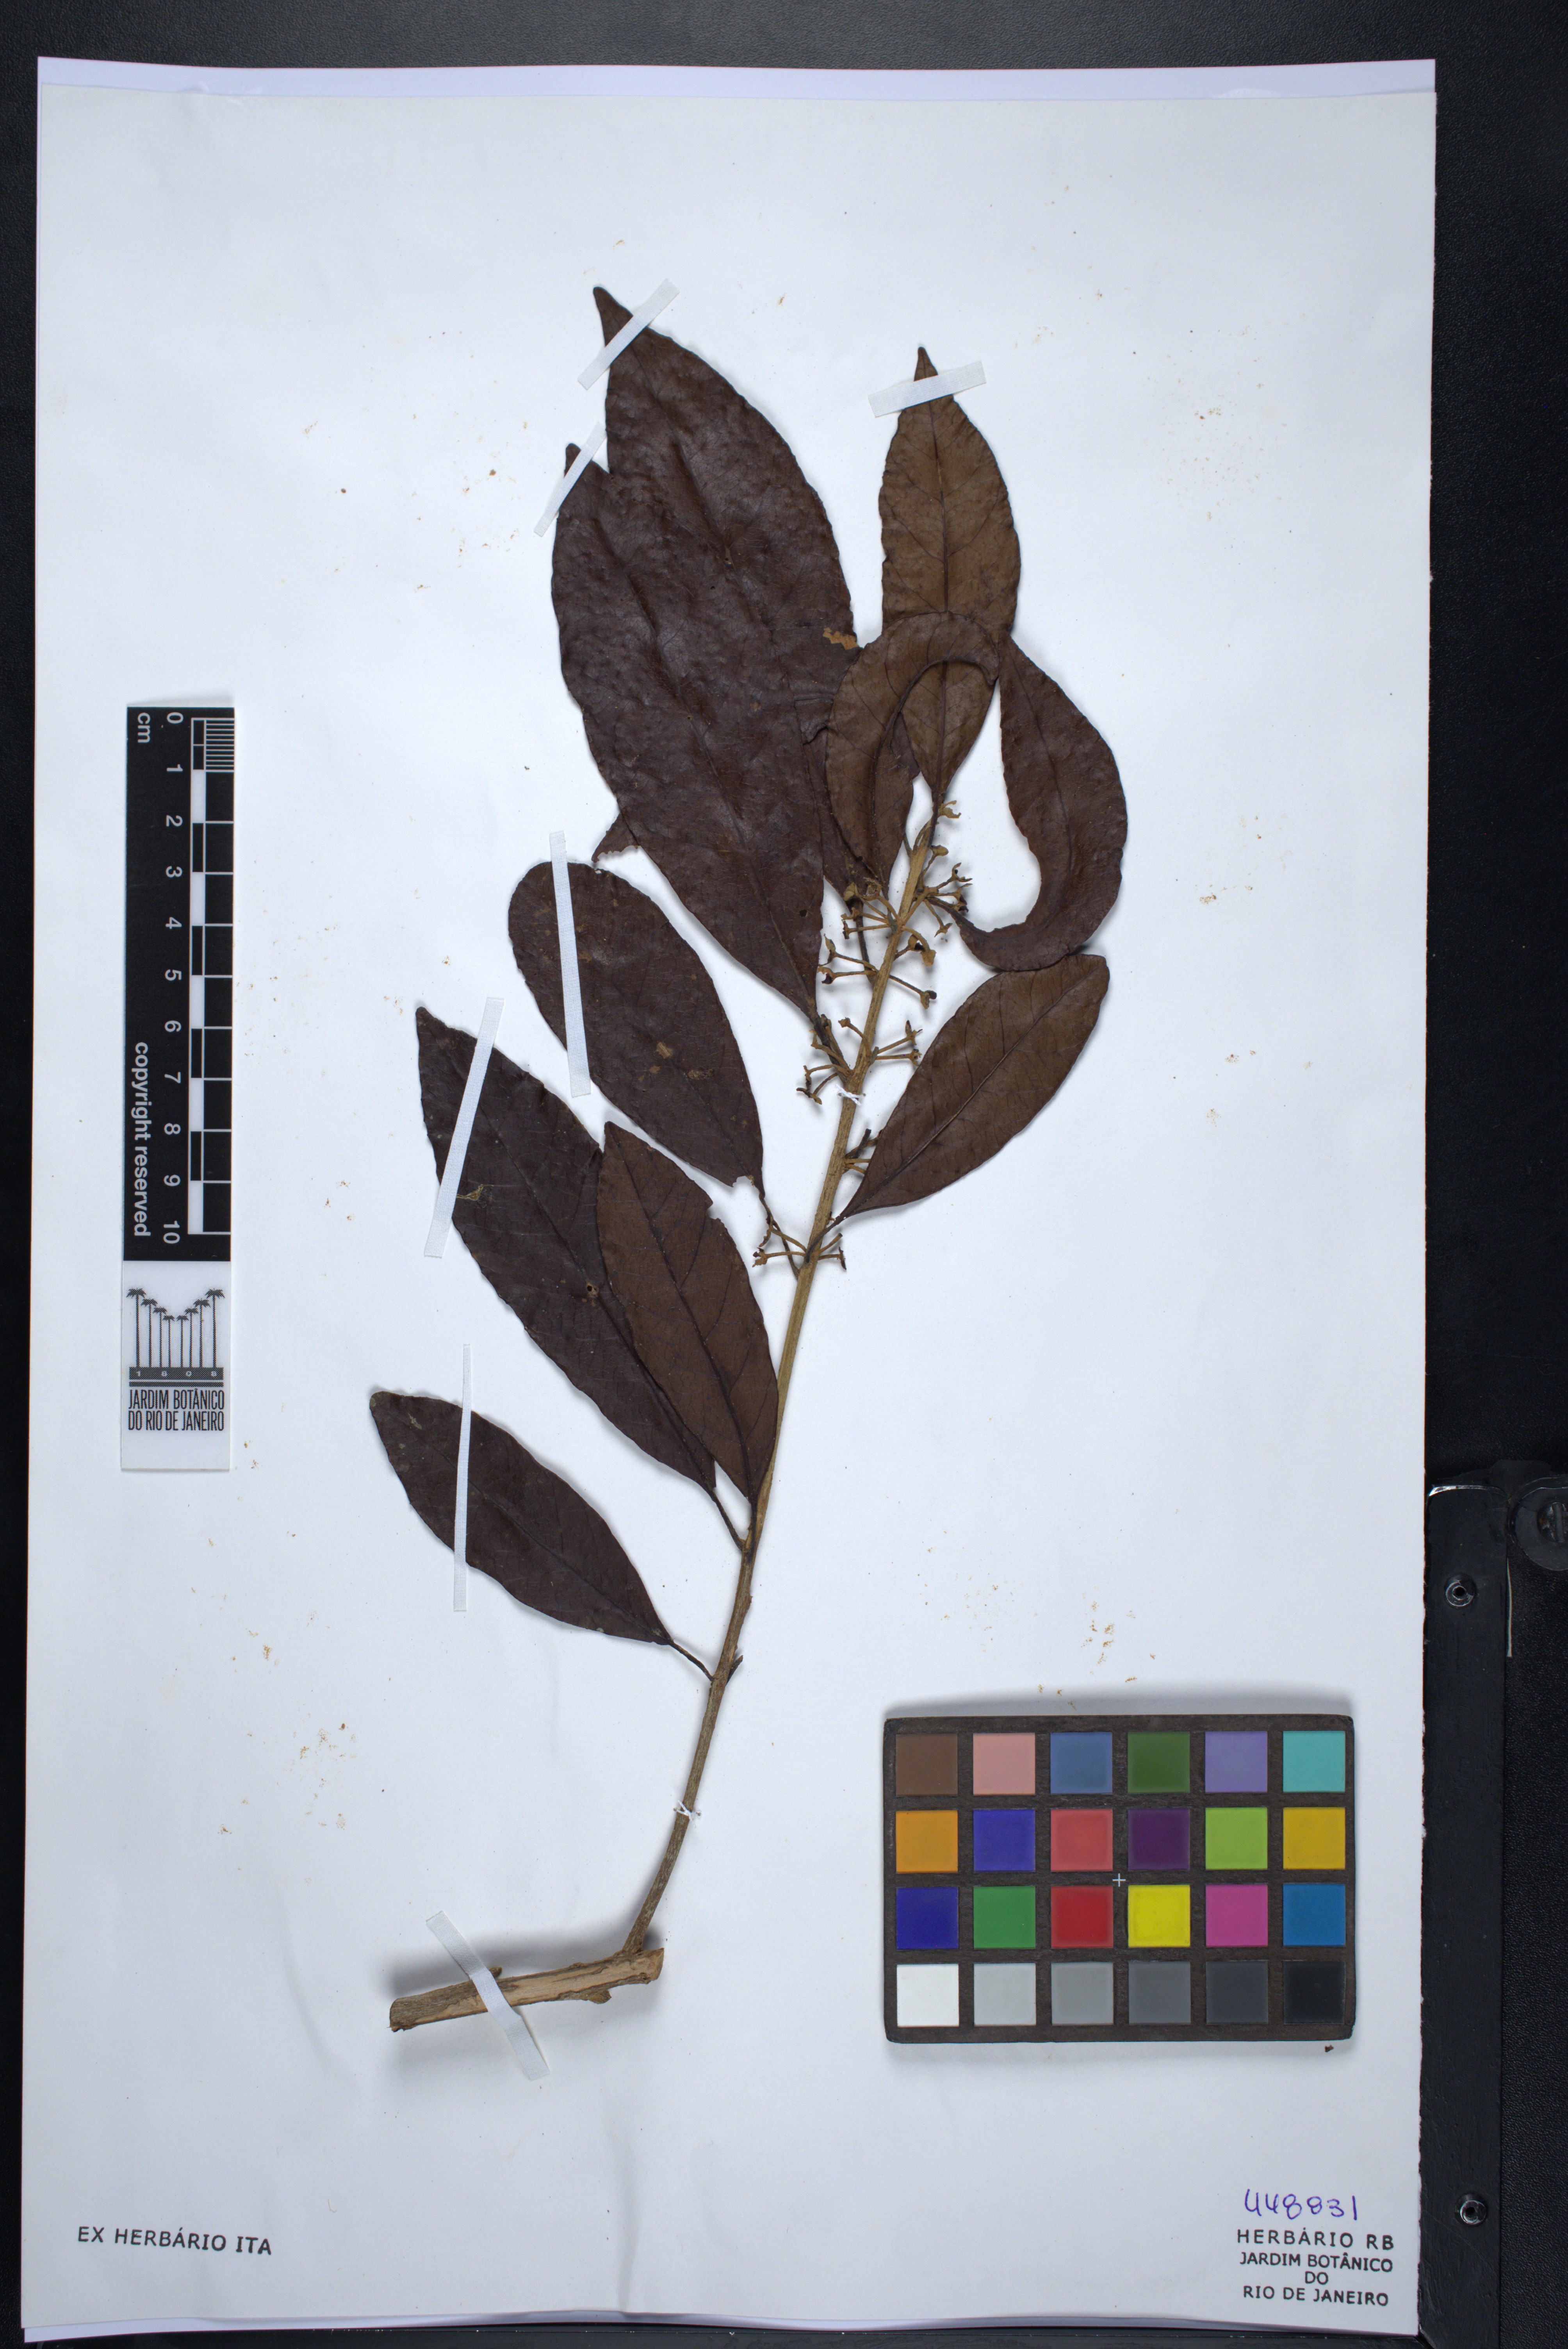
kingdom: Plantae
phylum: Tracheophyta
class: Magnoliopsida
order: Ericales
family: Sapotaceae
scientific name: Sapotaceae
